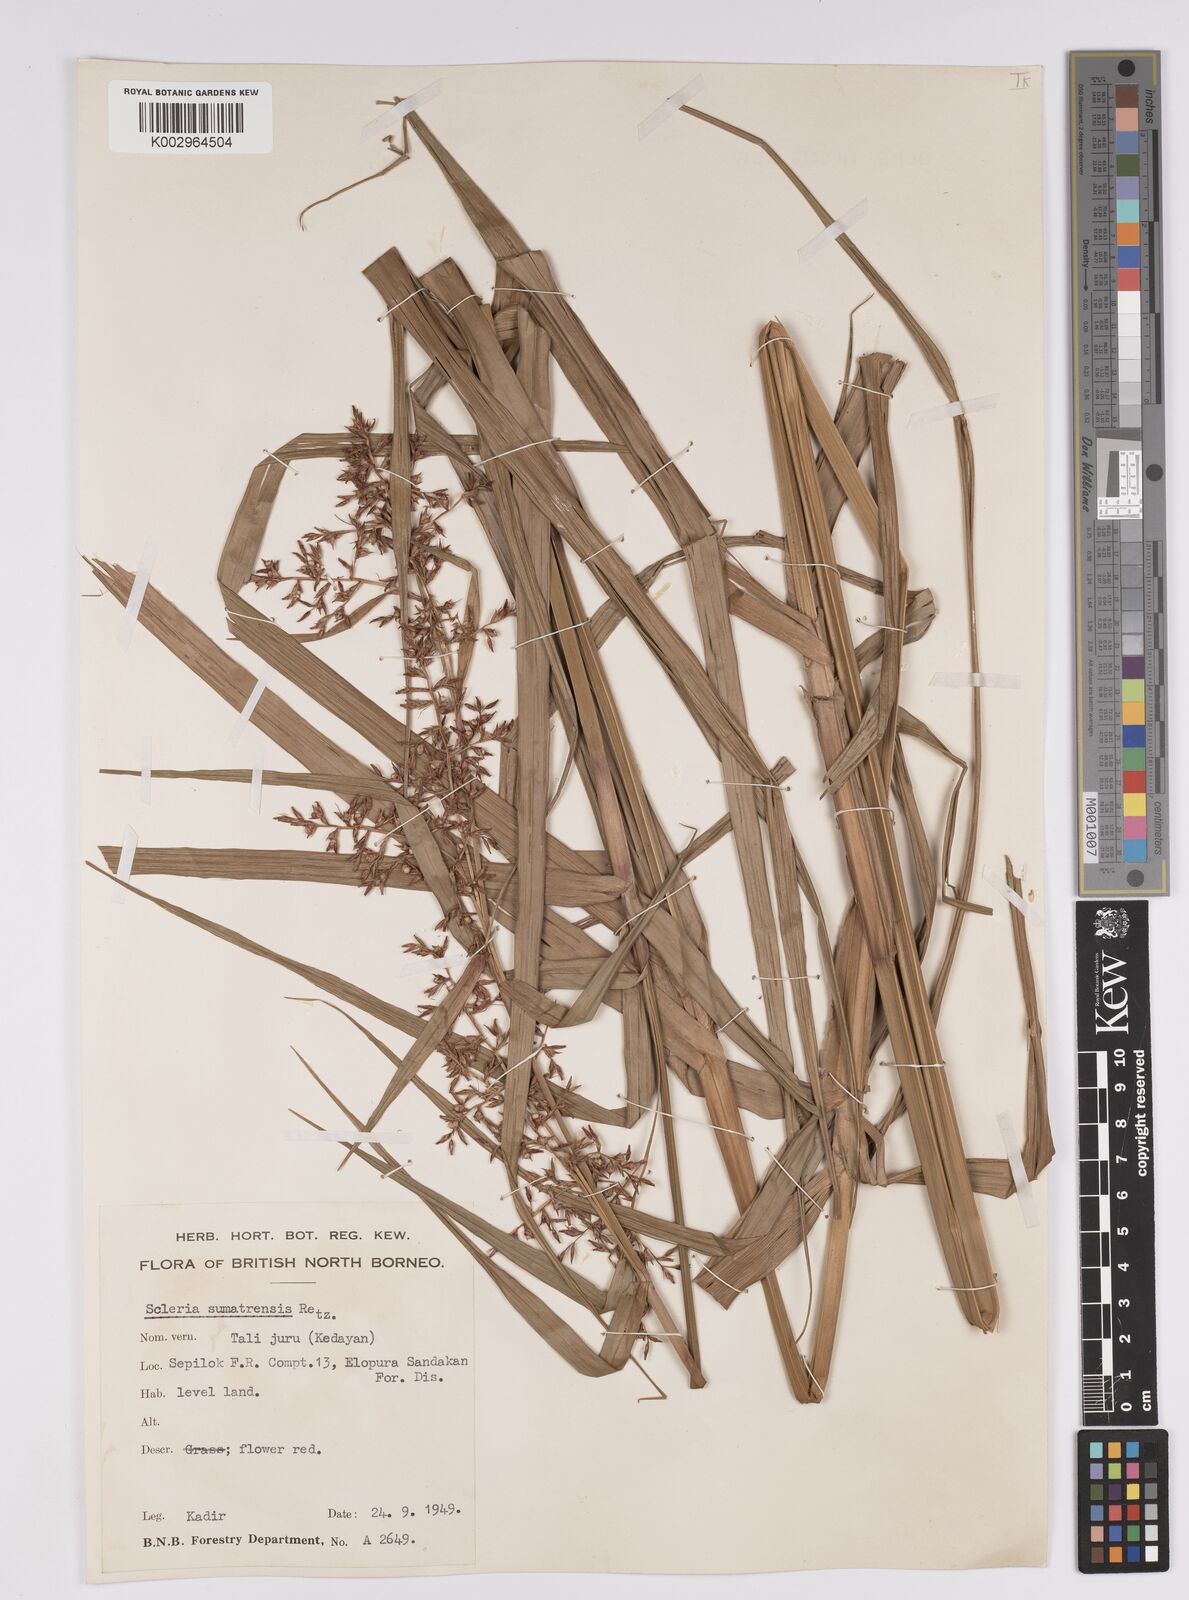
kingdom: Plantae
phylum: Tracheophyta
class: Liliopsida
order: Poales
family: Cyperaceae
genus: Scleria
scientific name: Scleria sumatrensis
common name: Sumatran scleria
